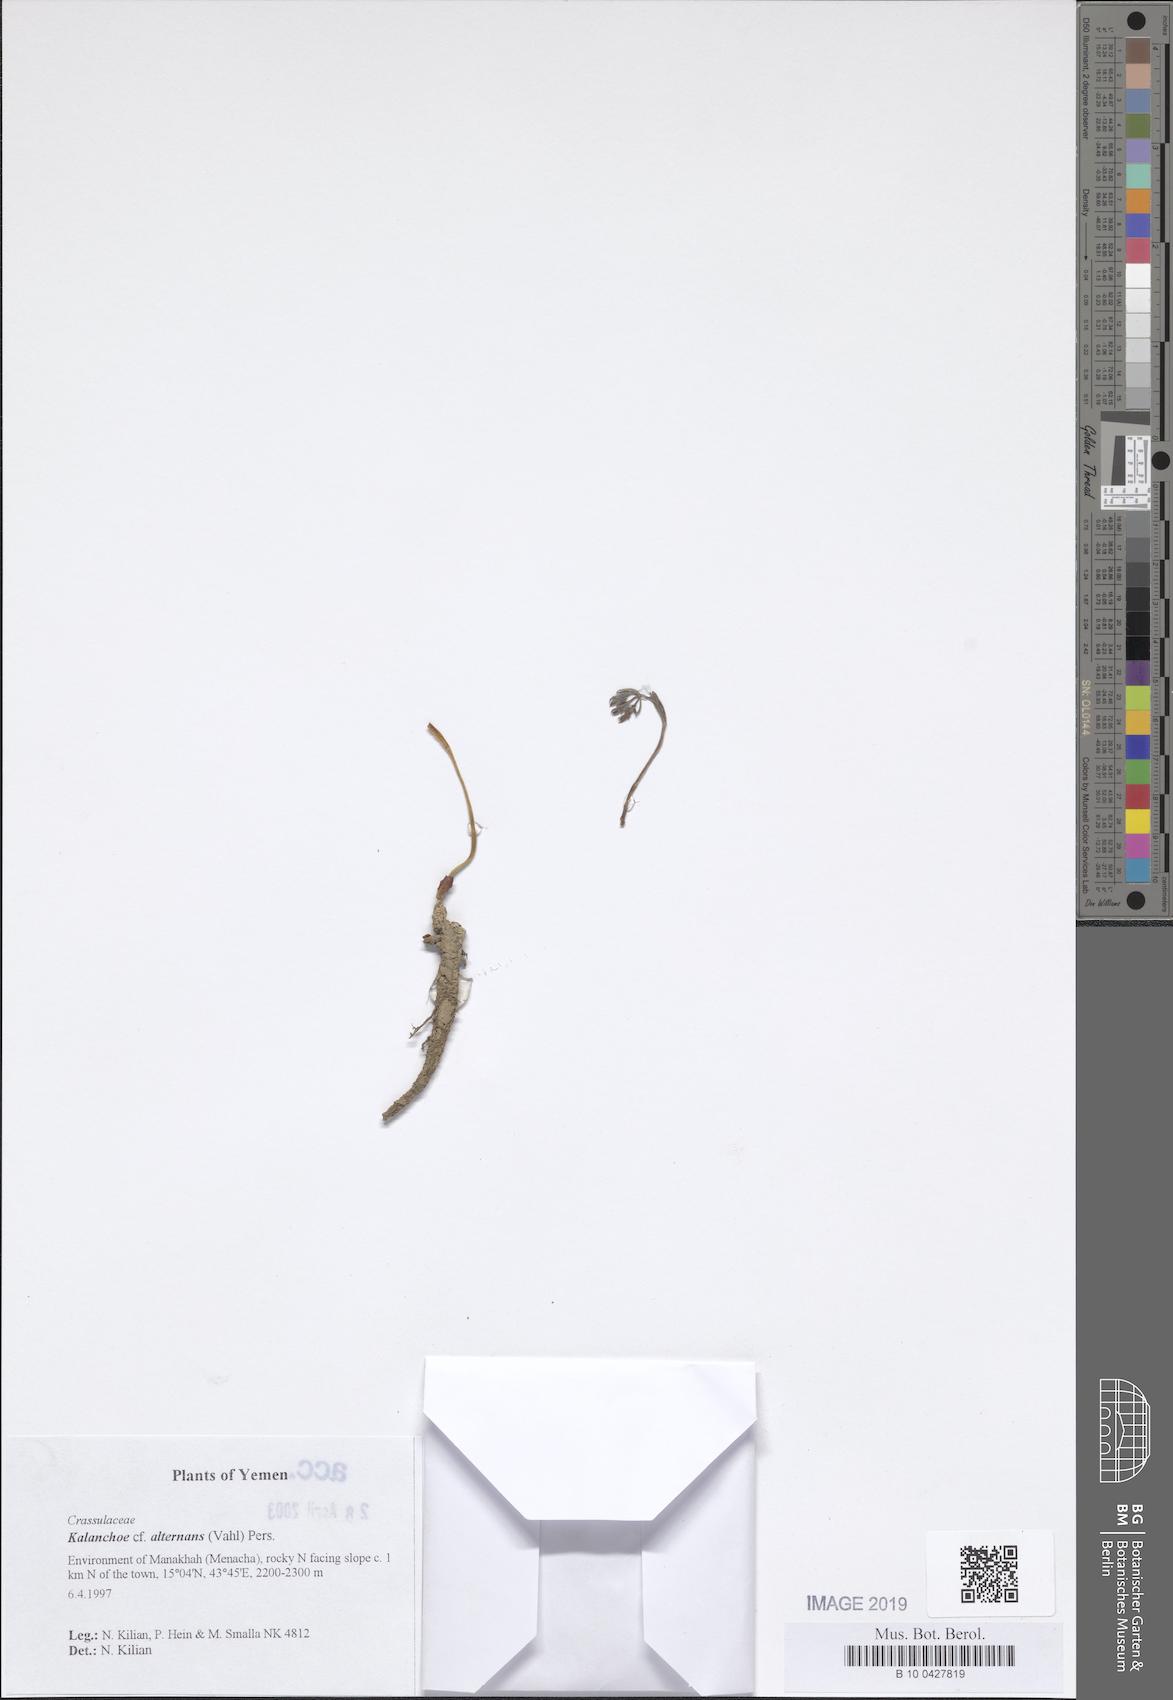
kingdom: Plantae
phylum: Tracheophyta
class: Magnoliopsida
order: Saxifragales
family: Crassulaceae
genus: Kalanchoe
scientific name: Kalanchoe alternans
